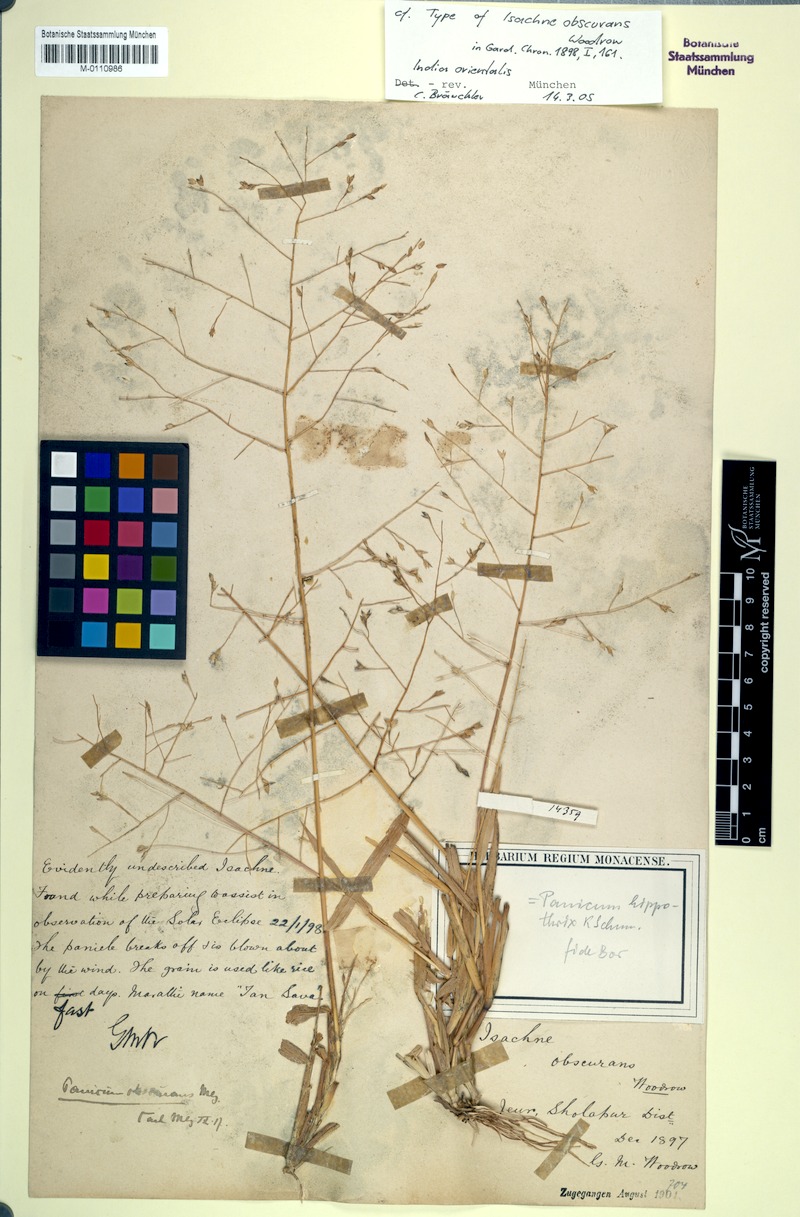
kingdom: Plantae
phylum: Tracheophyta
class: Liliopsida
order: Poales
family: Poaceae
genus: Panicum
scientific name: Panicum hippothrix
